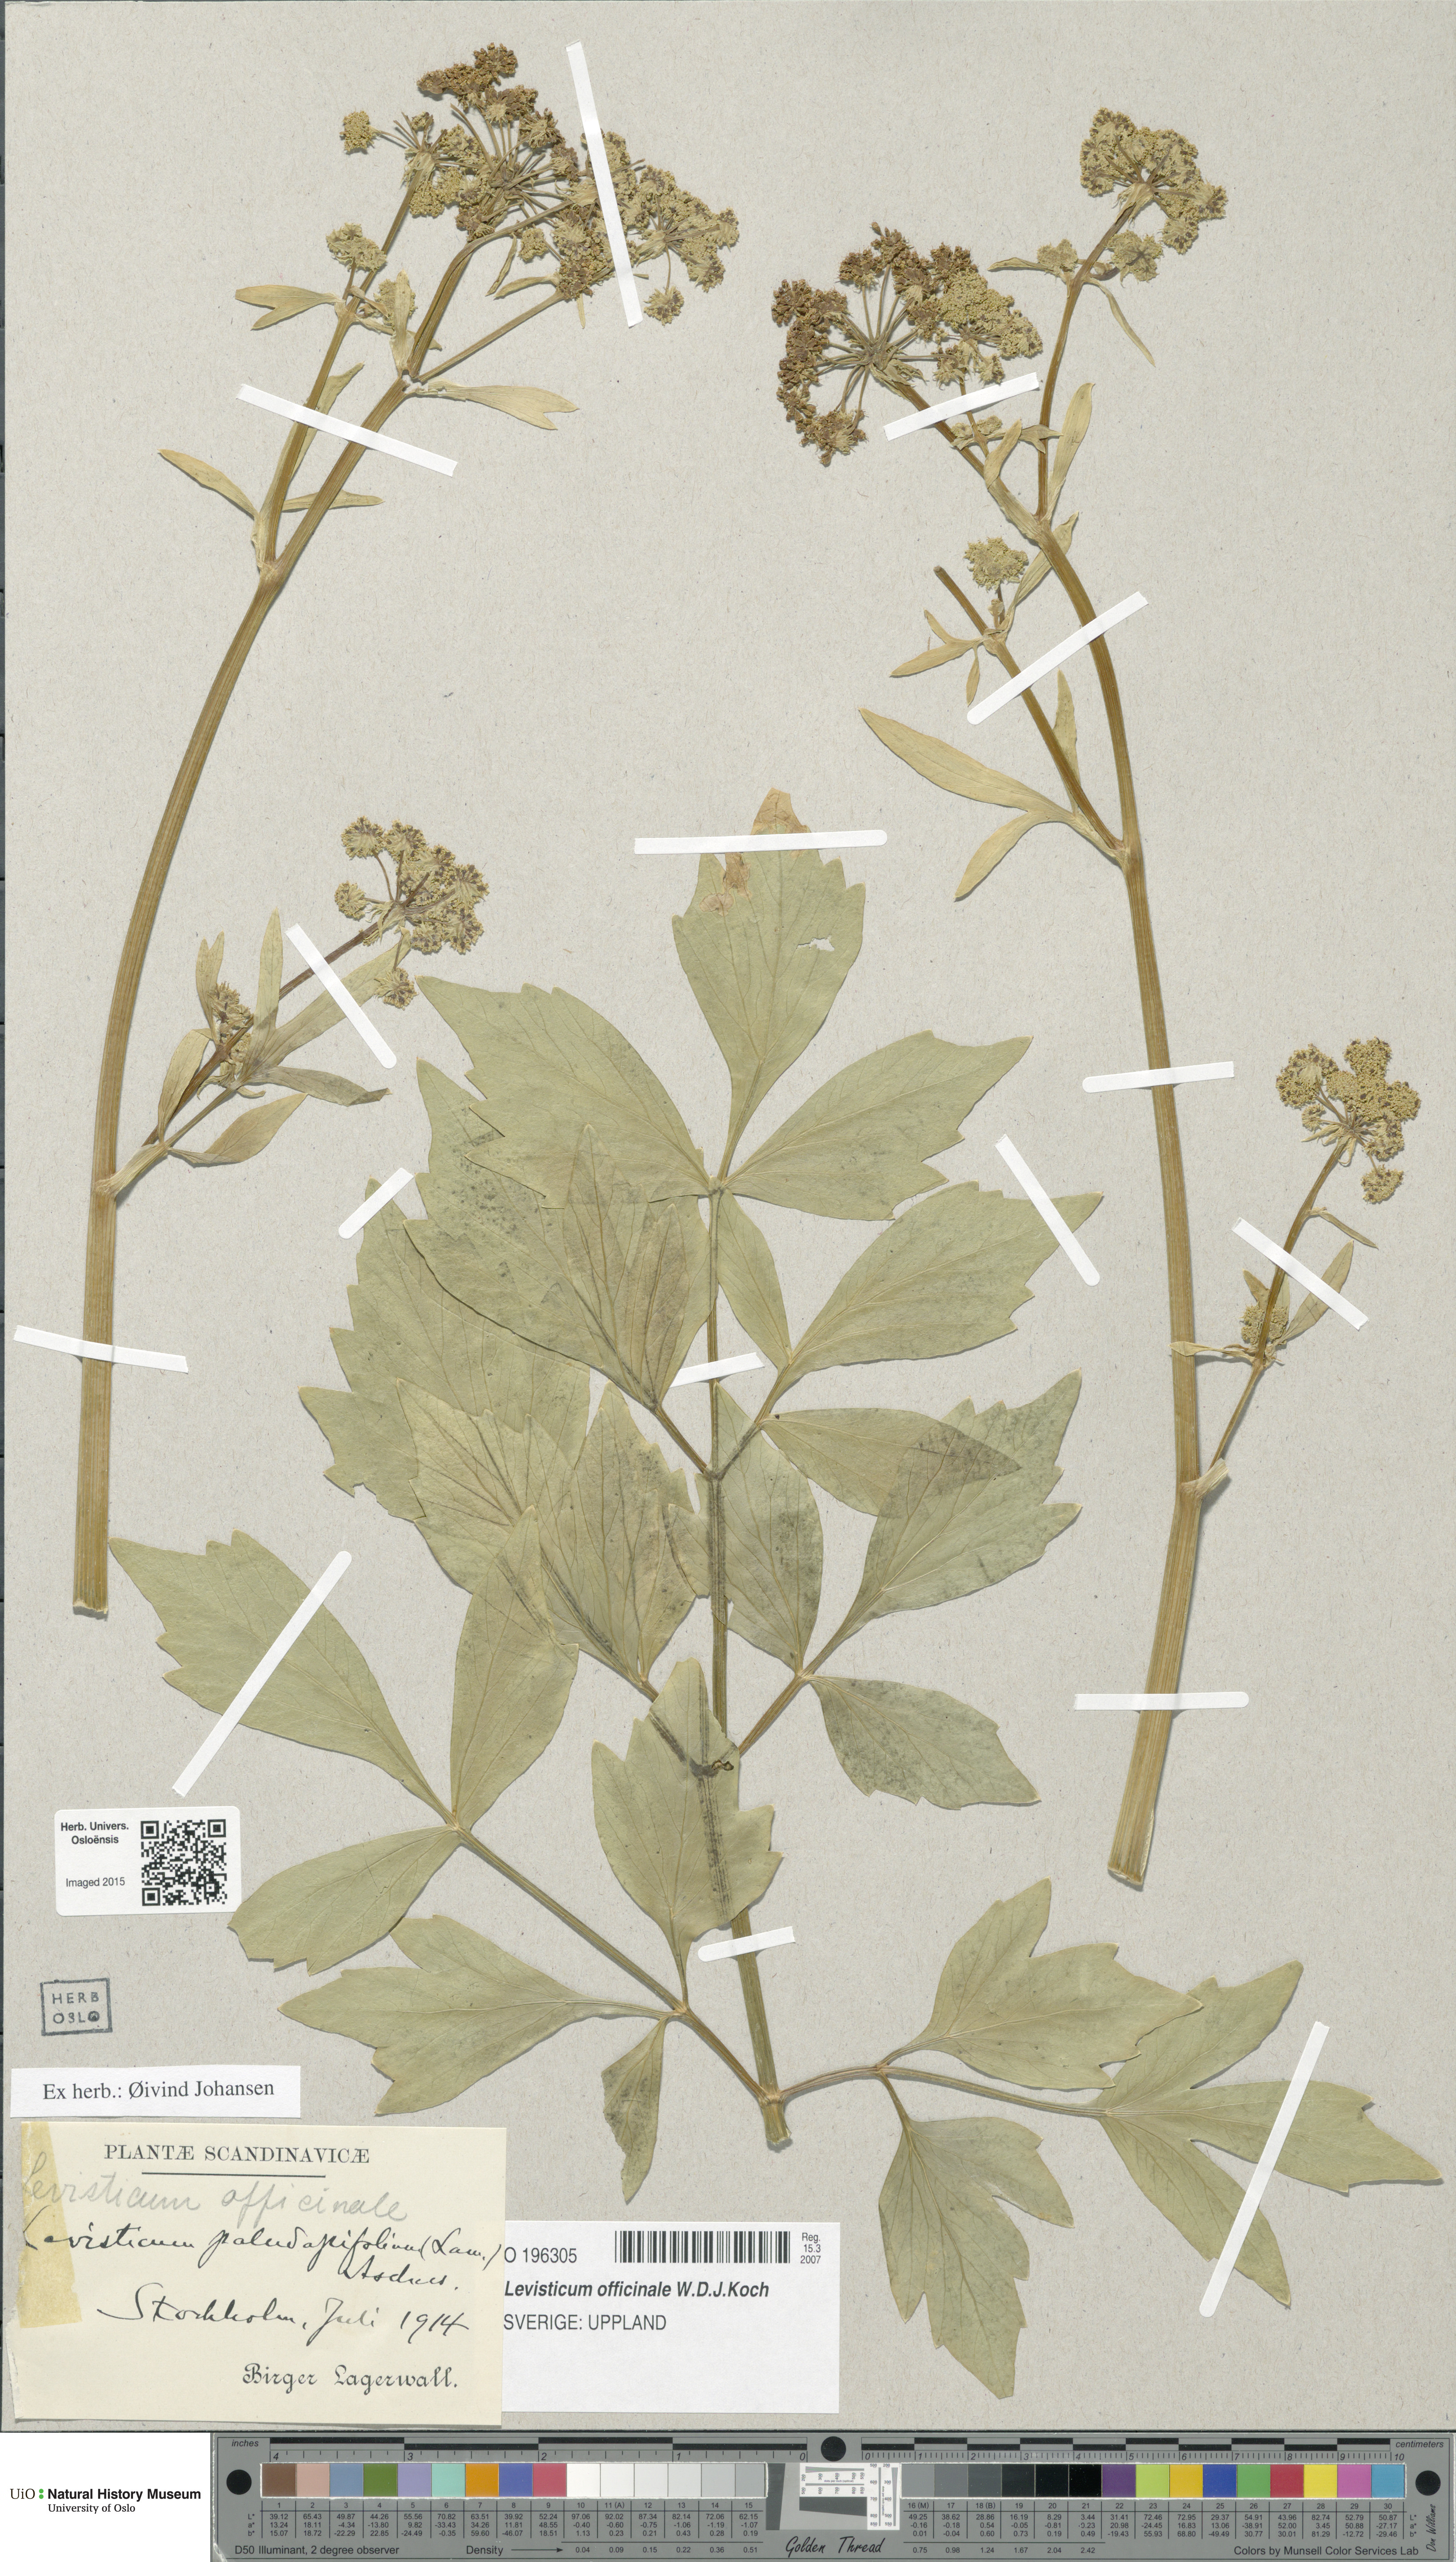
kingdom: Plantae
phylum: Tracheophyta
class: Magnoliopsida
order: Apiales
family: Apiaceae
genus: Levisticum
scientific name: Levisticum officinale
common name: Lovage
